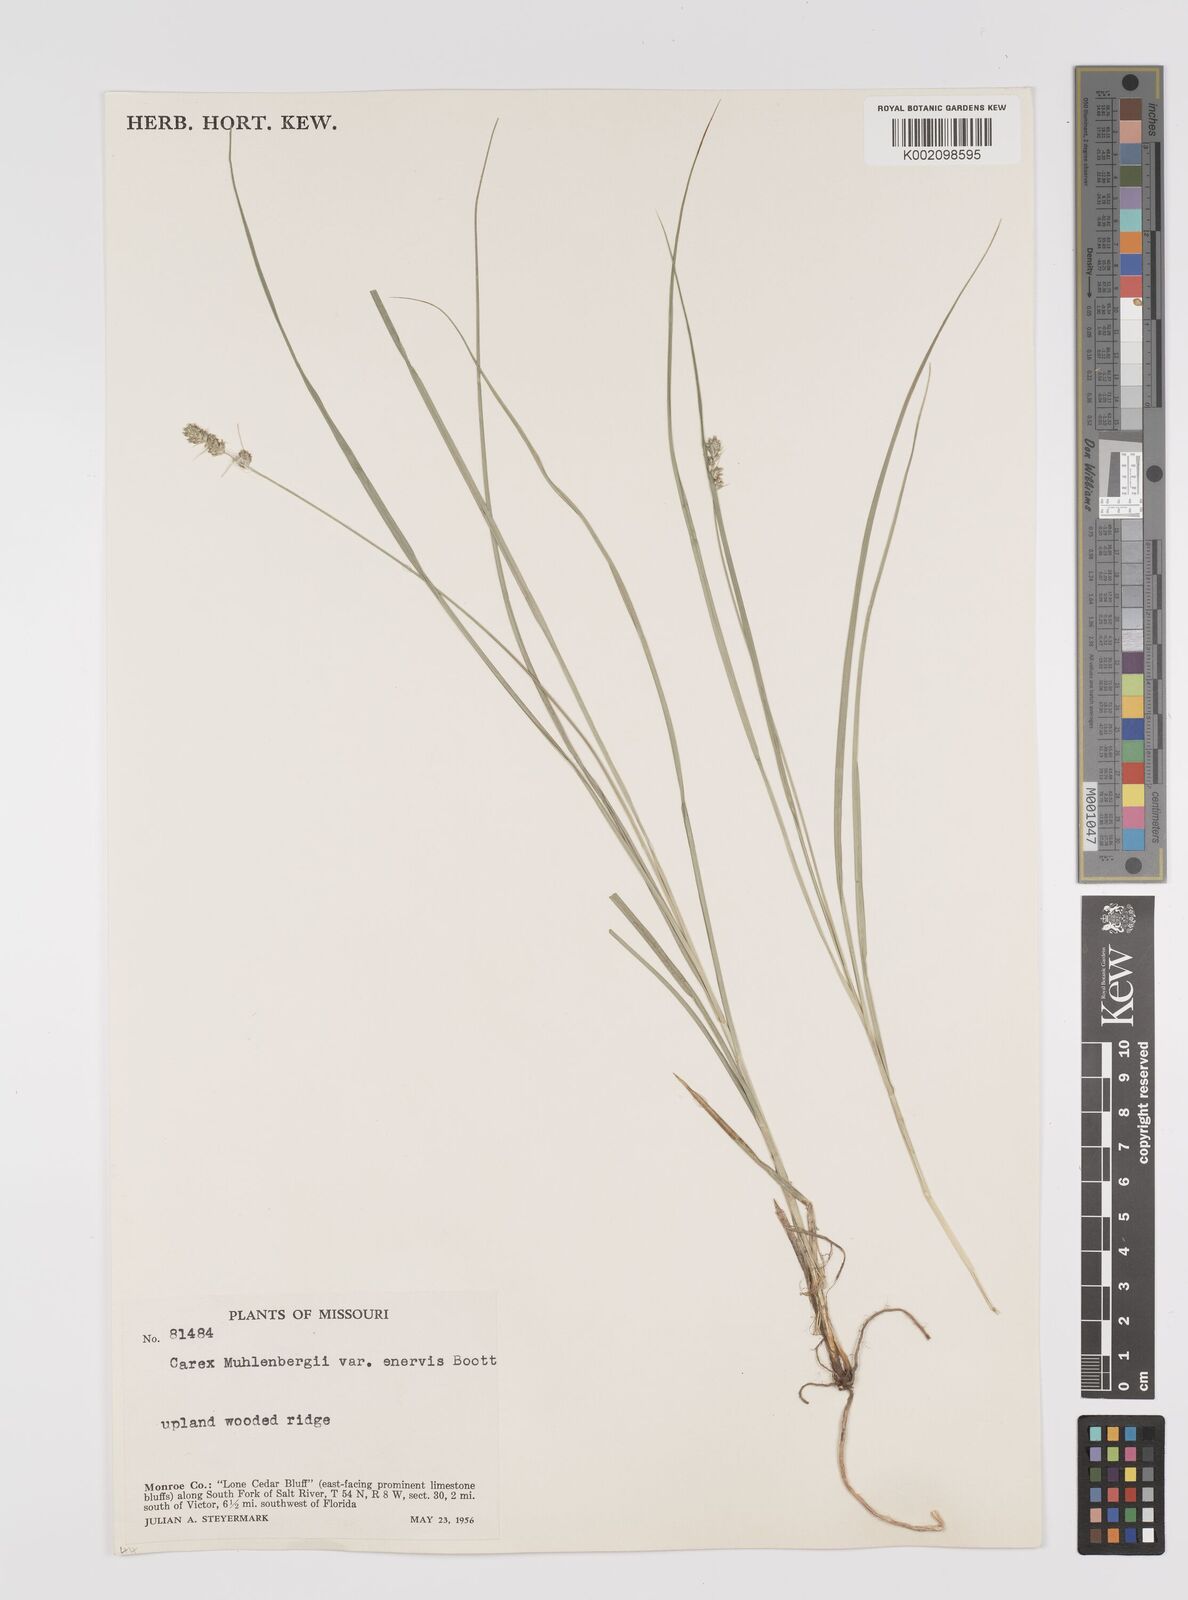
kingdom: Plantae
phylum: Tracheophyta
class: Liliopsida
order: Poales
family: Cyperaceae
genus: Carex
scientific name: Carex vulpinoidea
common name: American fox-sedge
